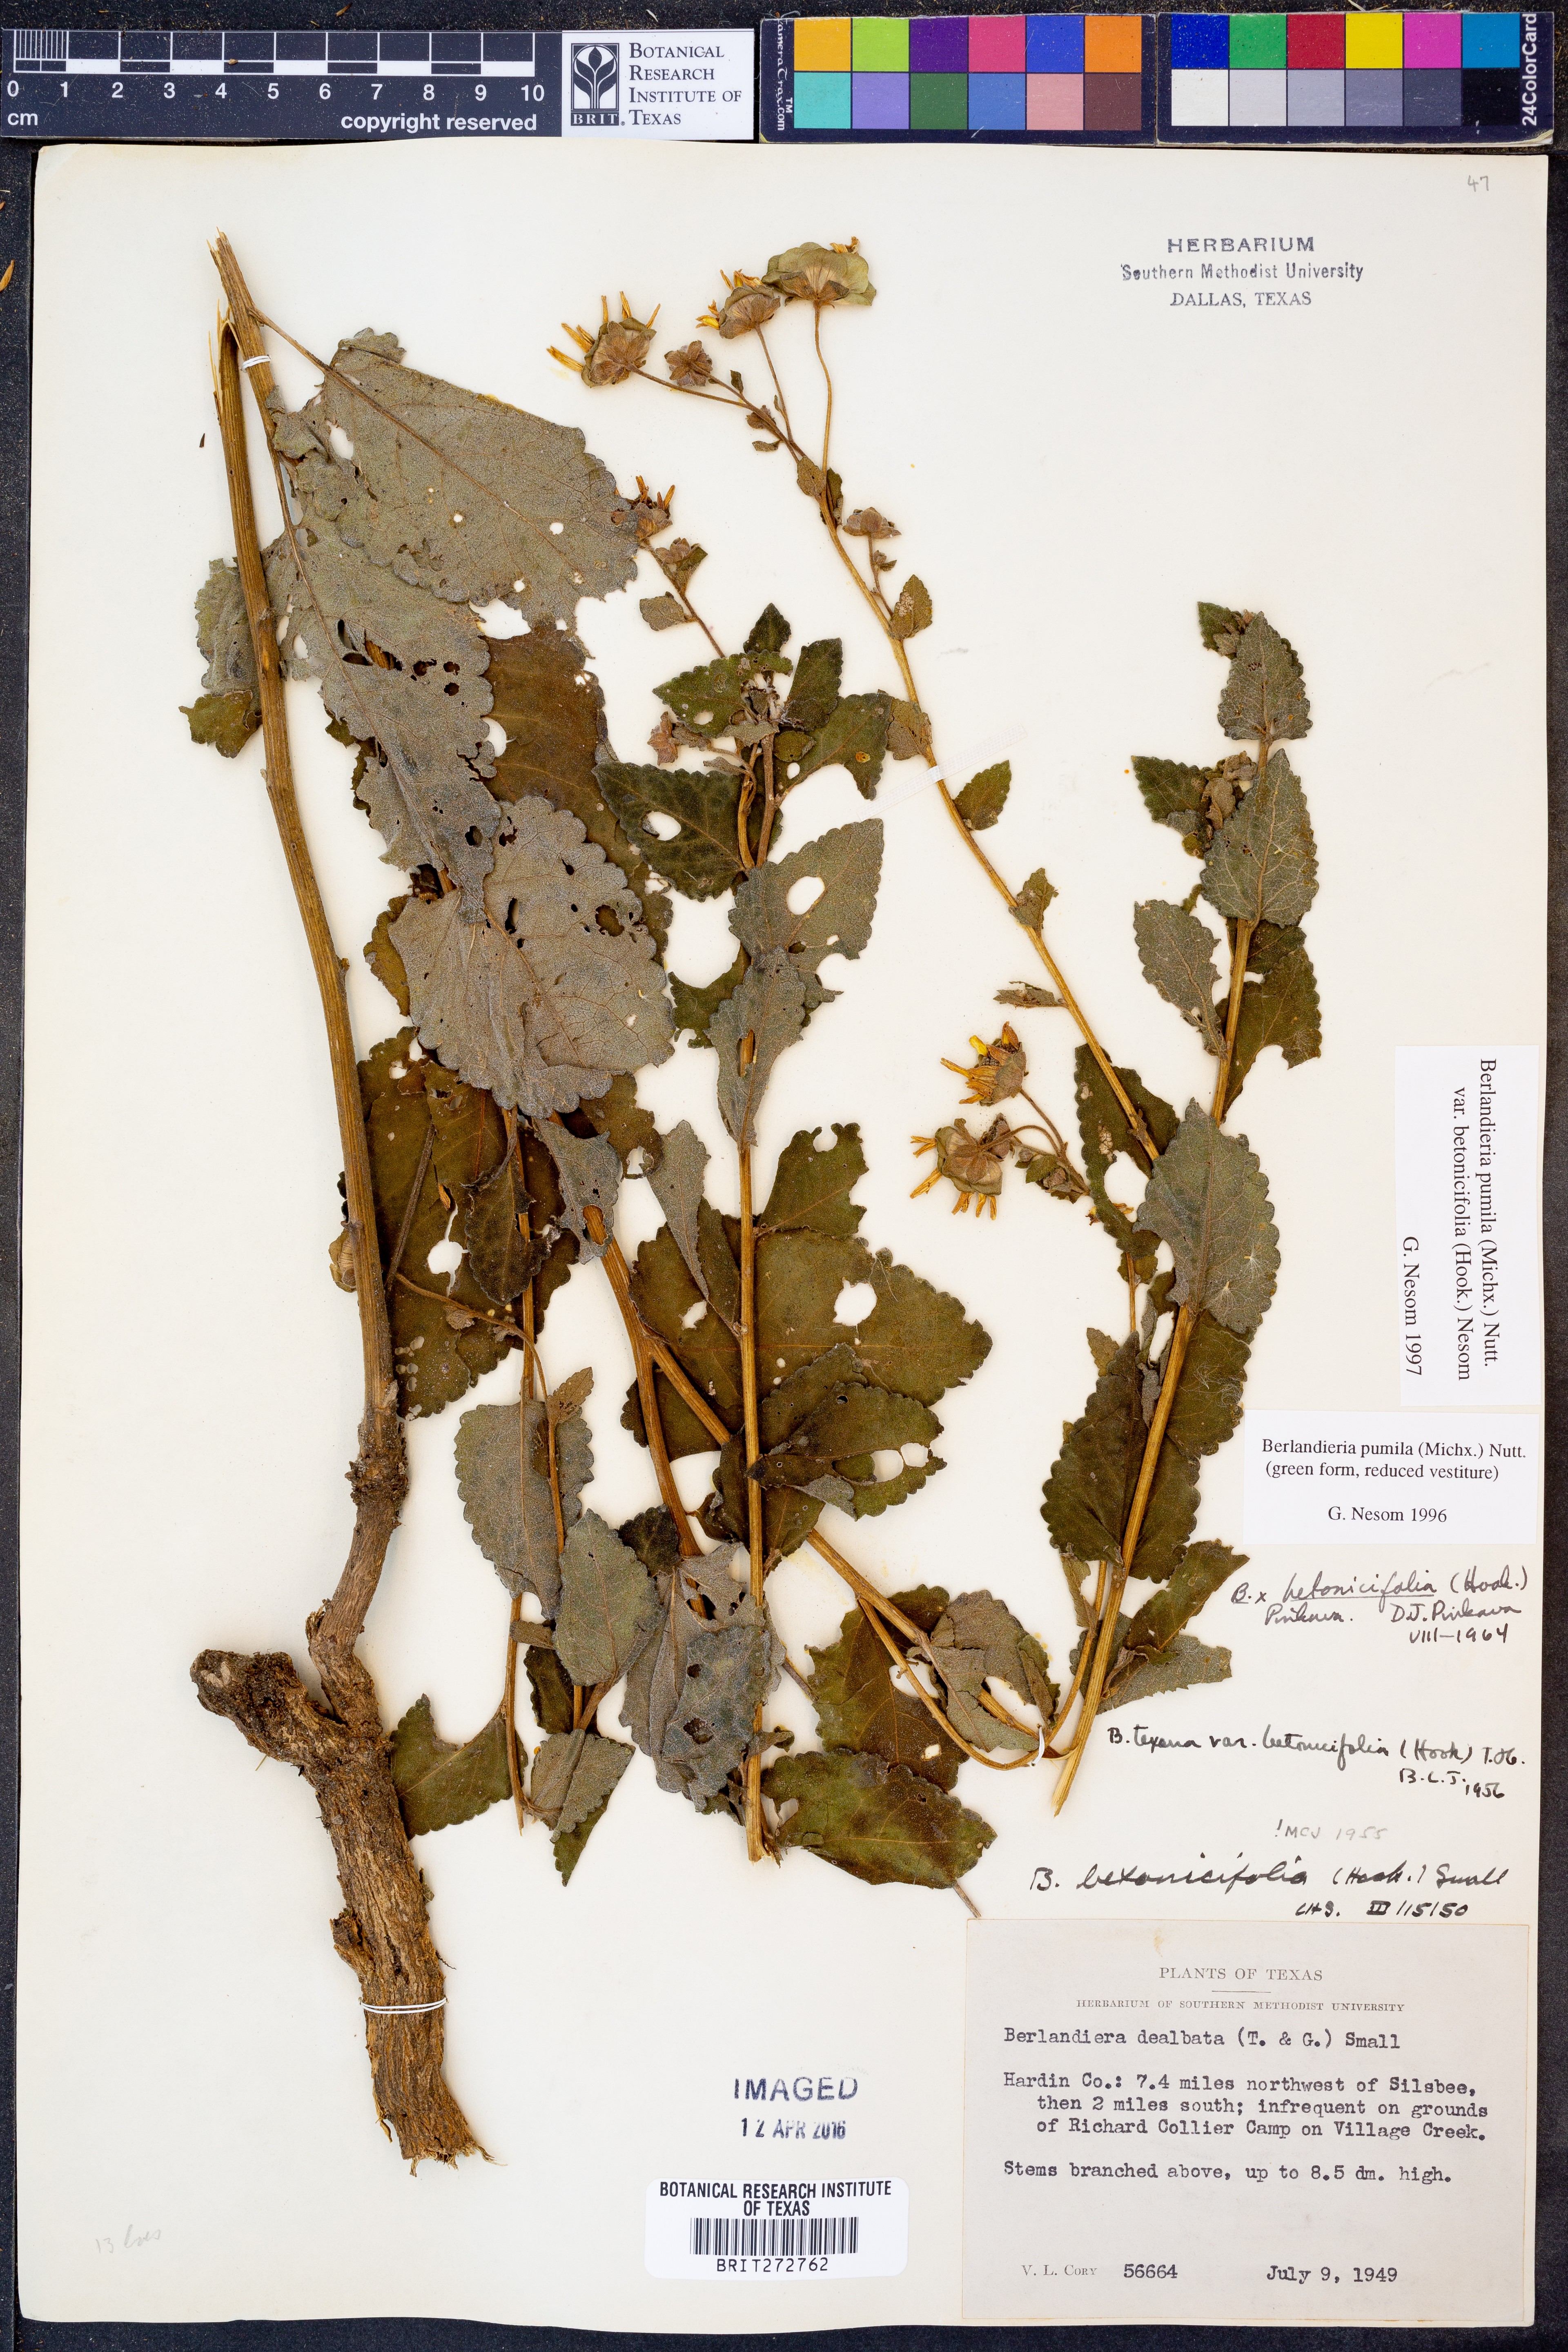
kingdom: Plantae
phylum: Tracheophyta
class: Magnoliopsida
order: Asterales
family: Asteraceae
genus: Berlandiera
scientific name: Berlandiera pumila
